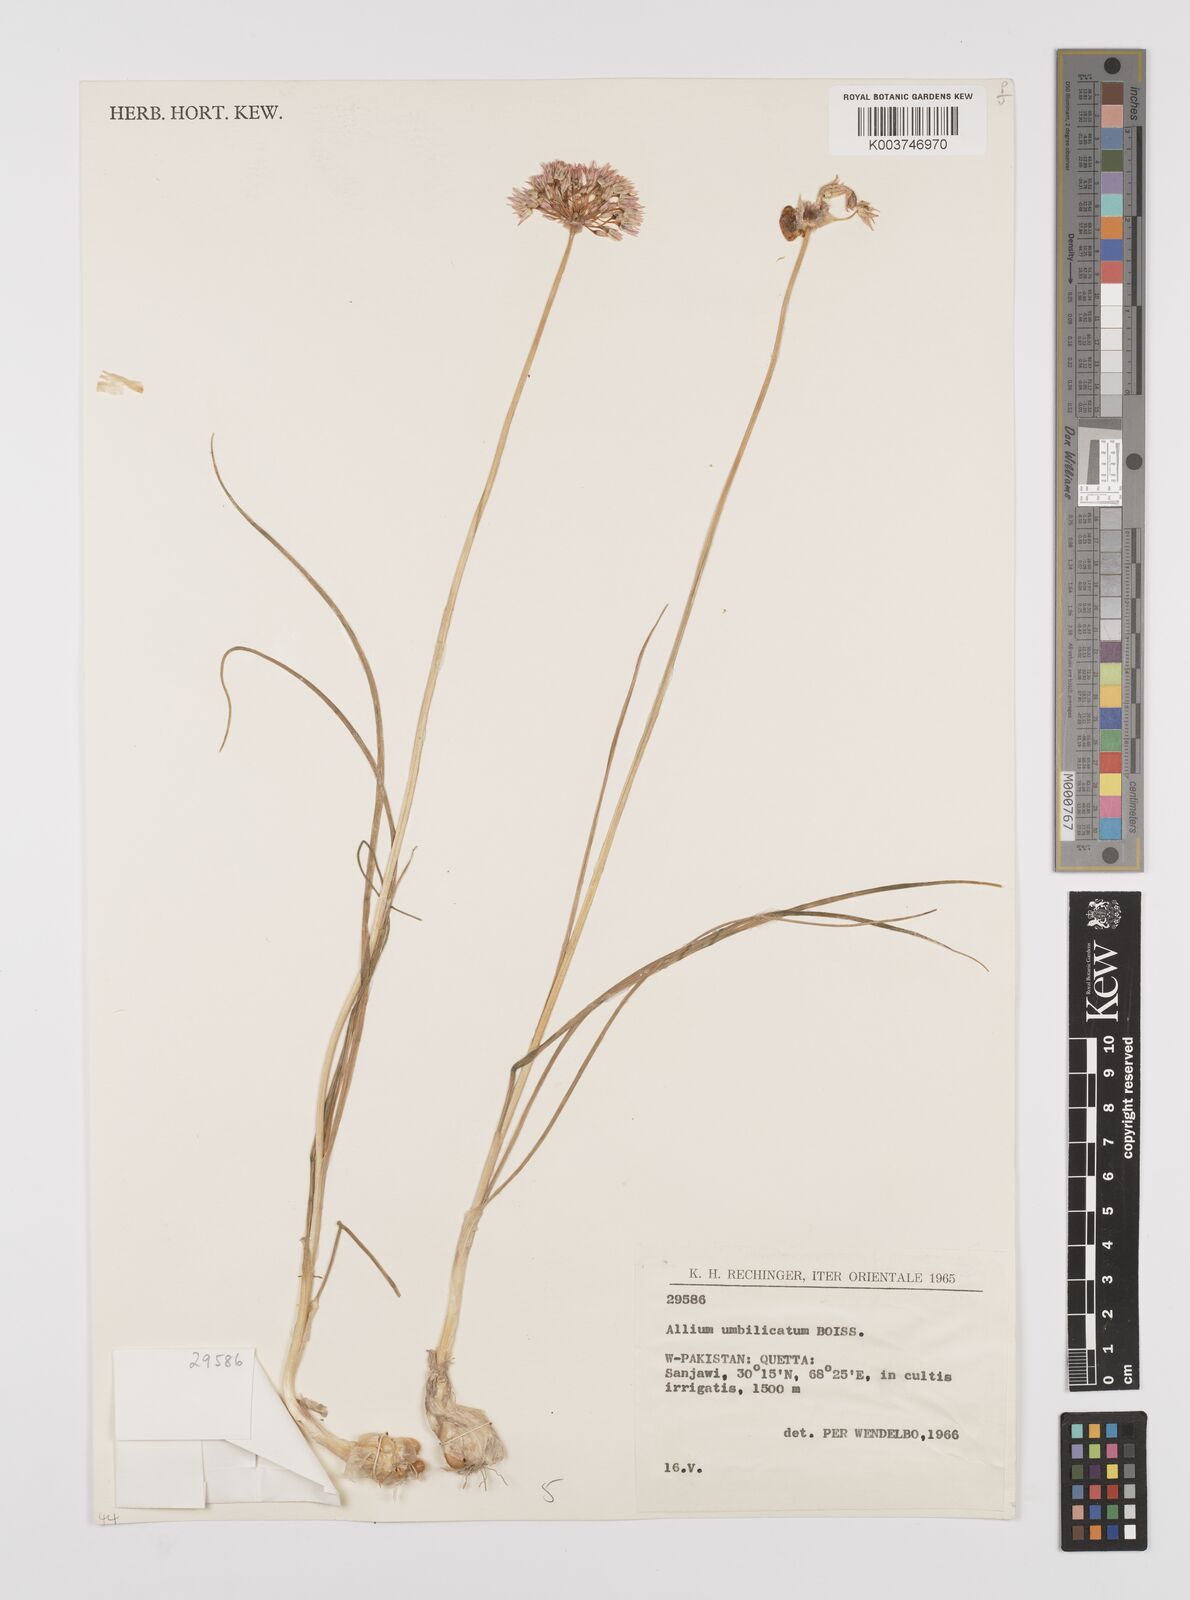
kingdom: Plantae
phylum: Tracheophyta
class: Liliopsida
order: Asparagales
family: Amaryllidaceae
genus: Allium
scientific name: Allium umbilicatum
